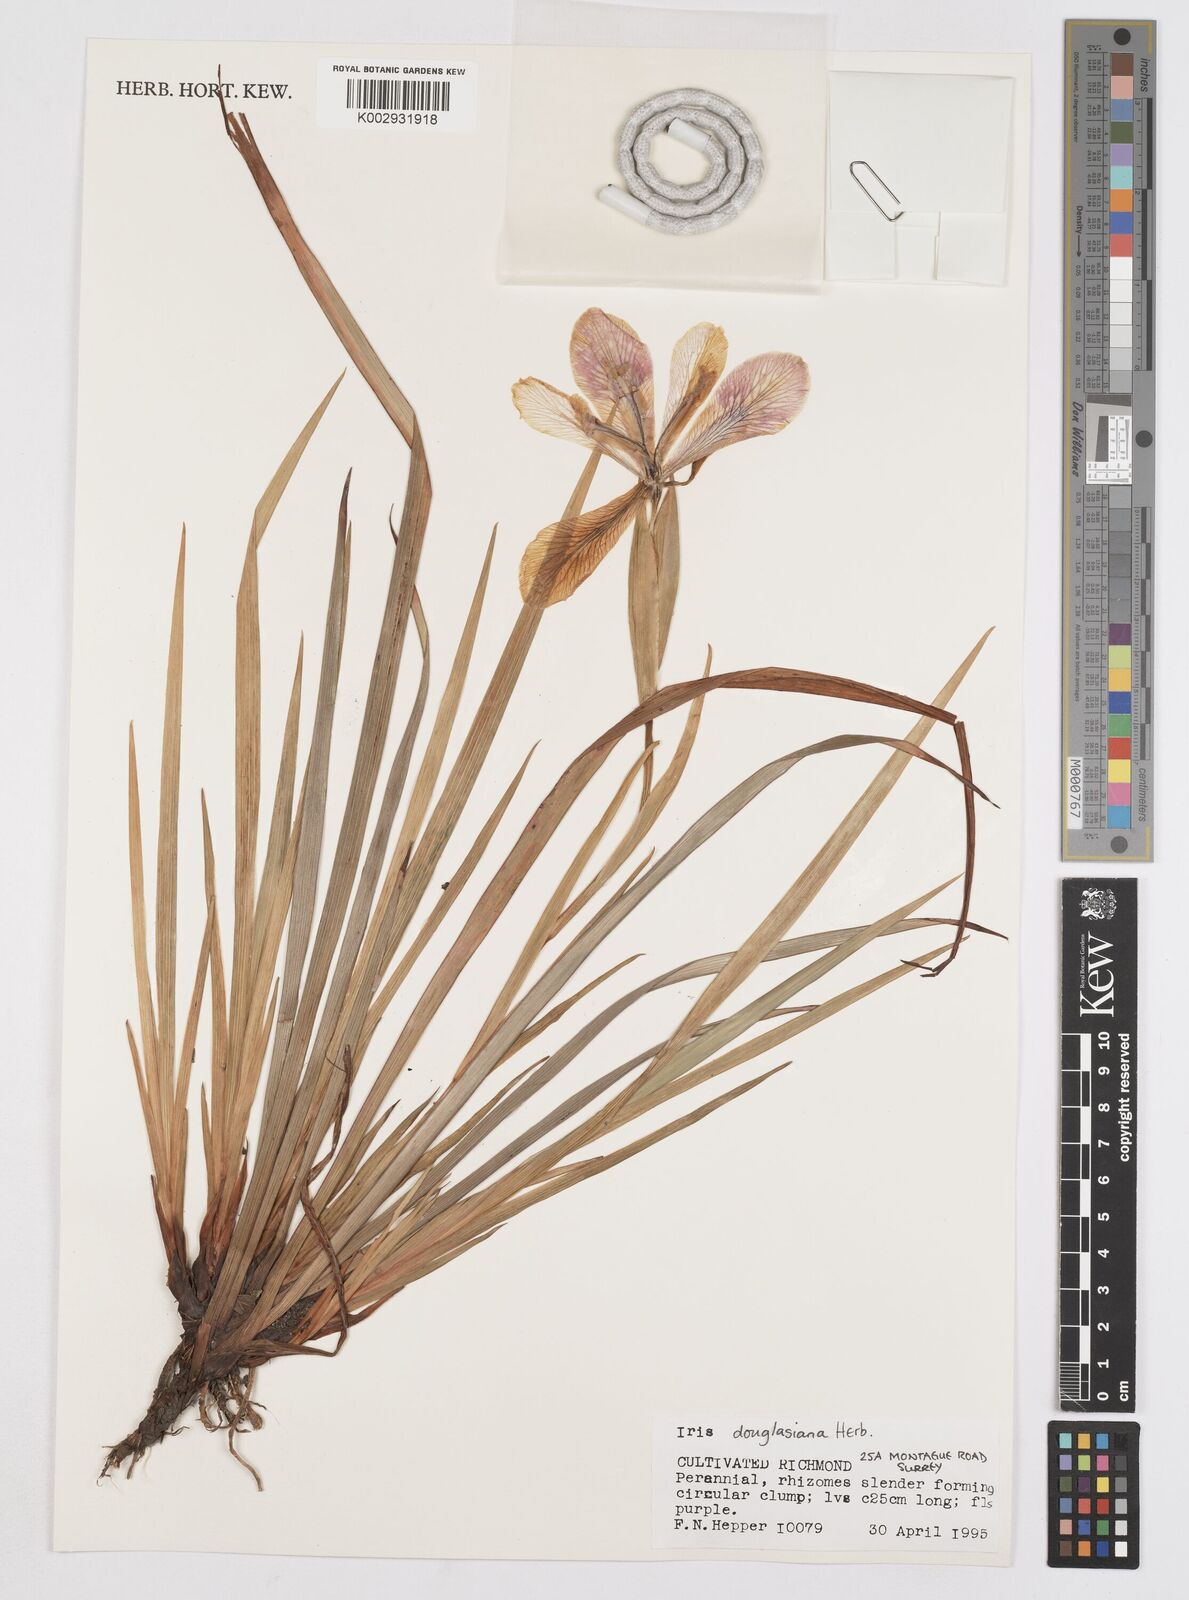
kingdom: Plantae
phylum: Tracheophyta
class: Liliopsida
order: Asparagales
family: Iridaceae
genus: Iris
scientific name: Iris douglasiana
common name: Marin iris
